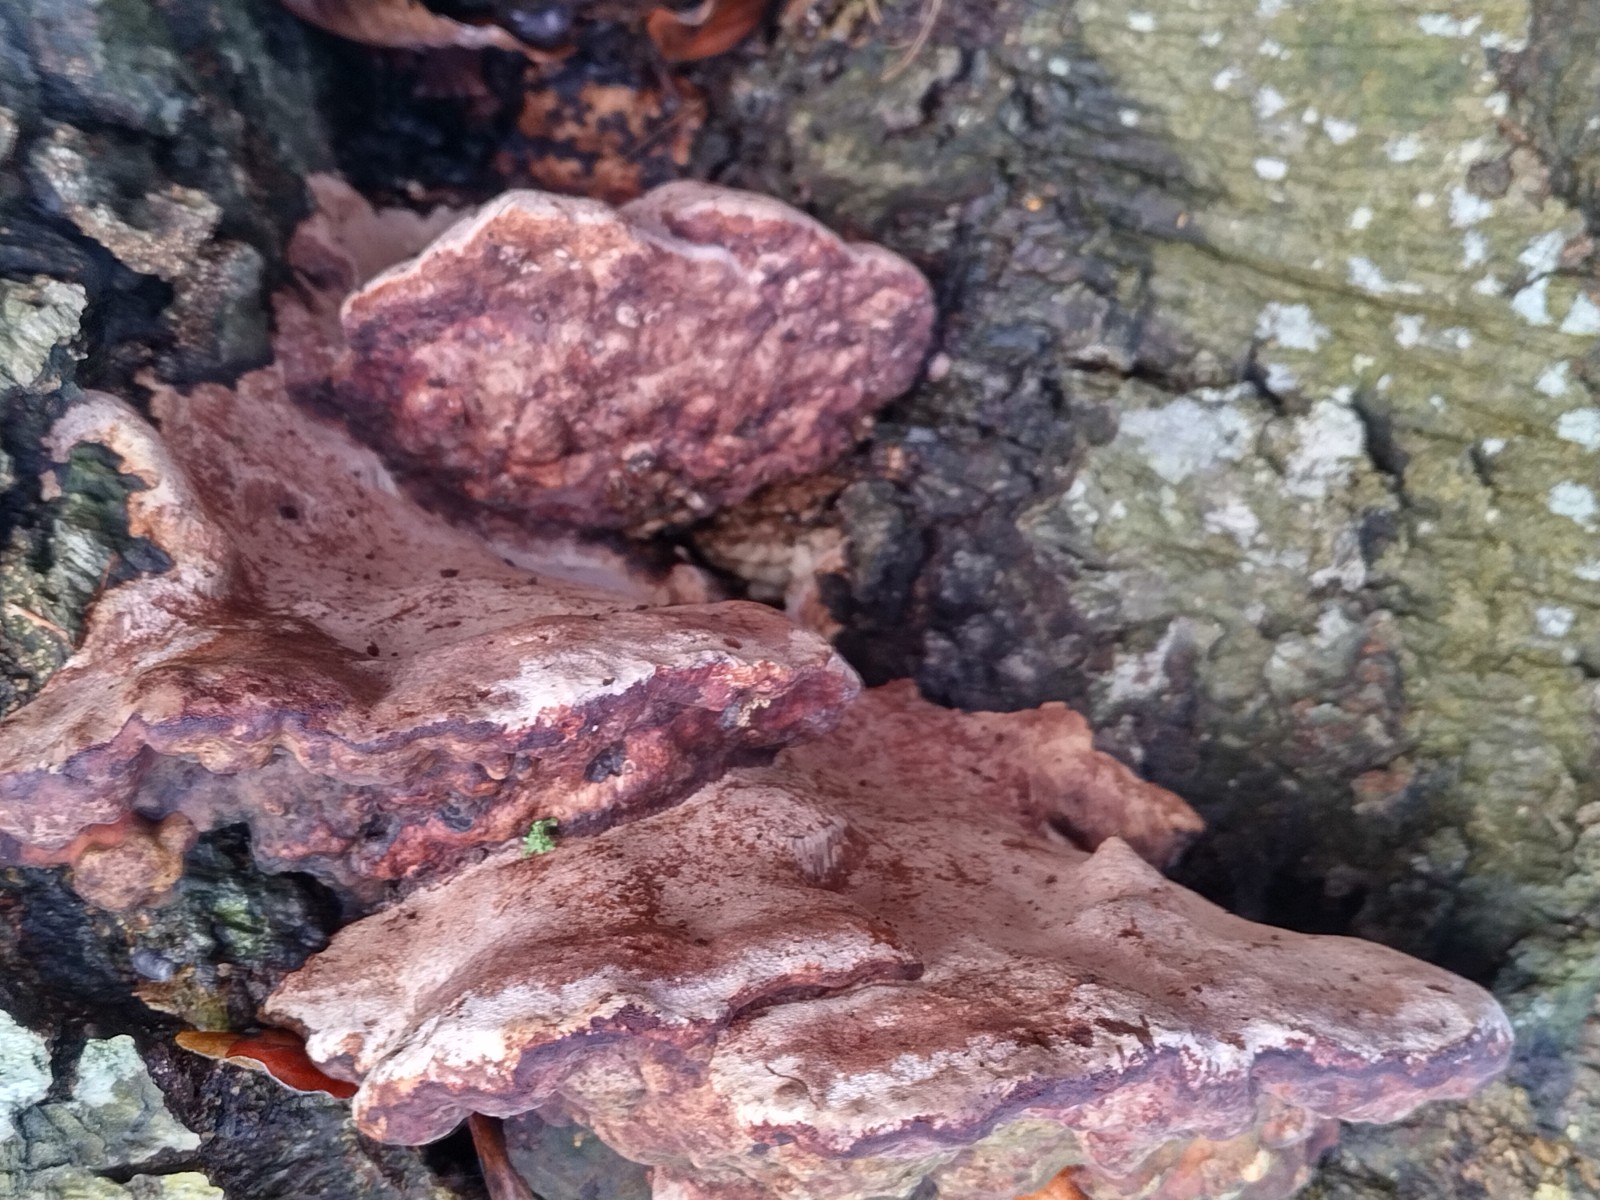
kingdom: Fungi
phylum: Basidiomycota
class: Agaricomycetes
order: Polyporales
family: Polyporaceae
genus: Vanderbylia
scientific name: Vanderbylia fraxinea
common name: stor kanelporesvamp
